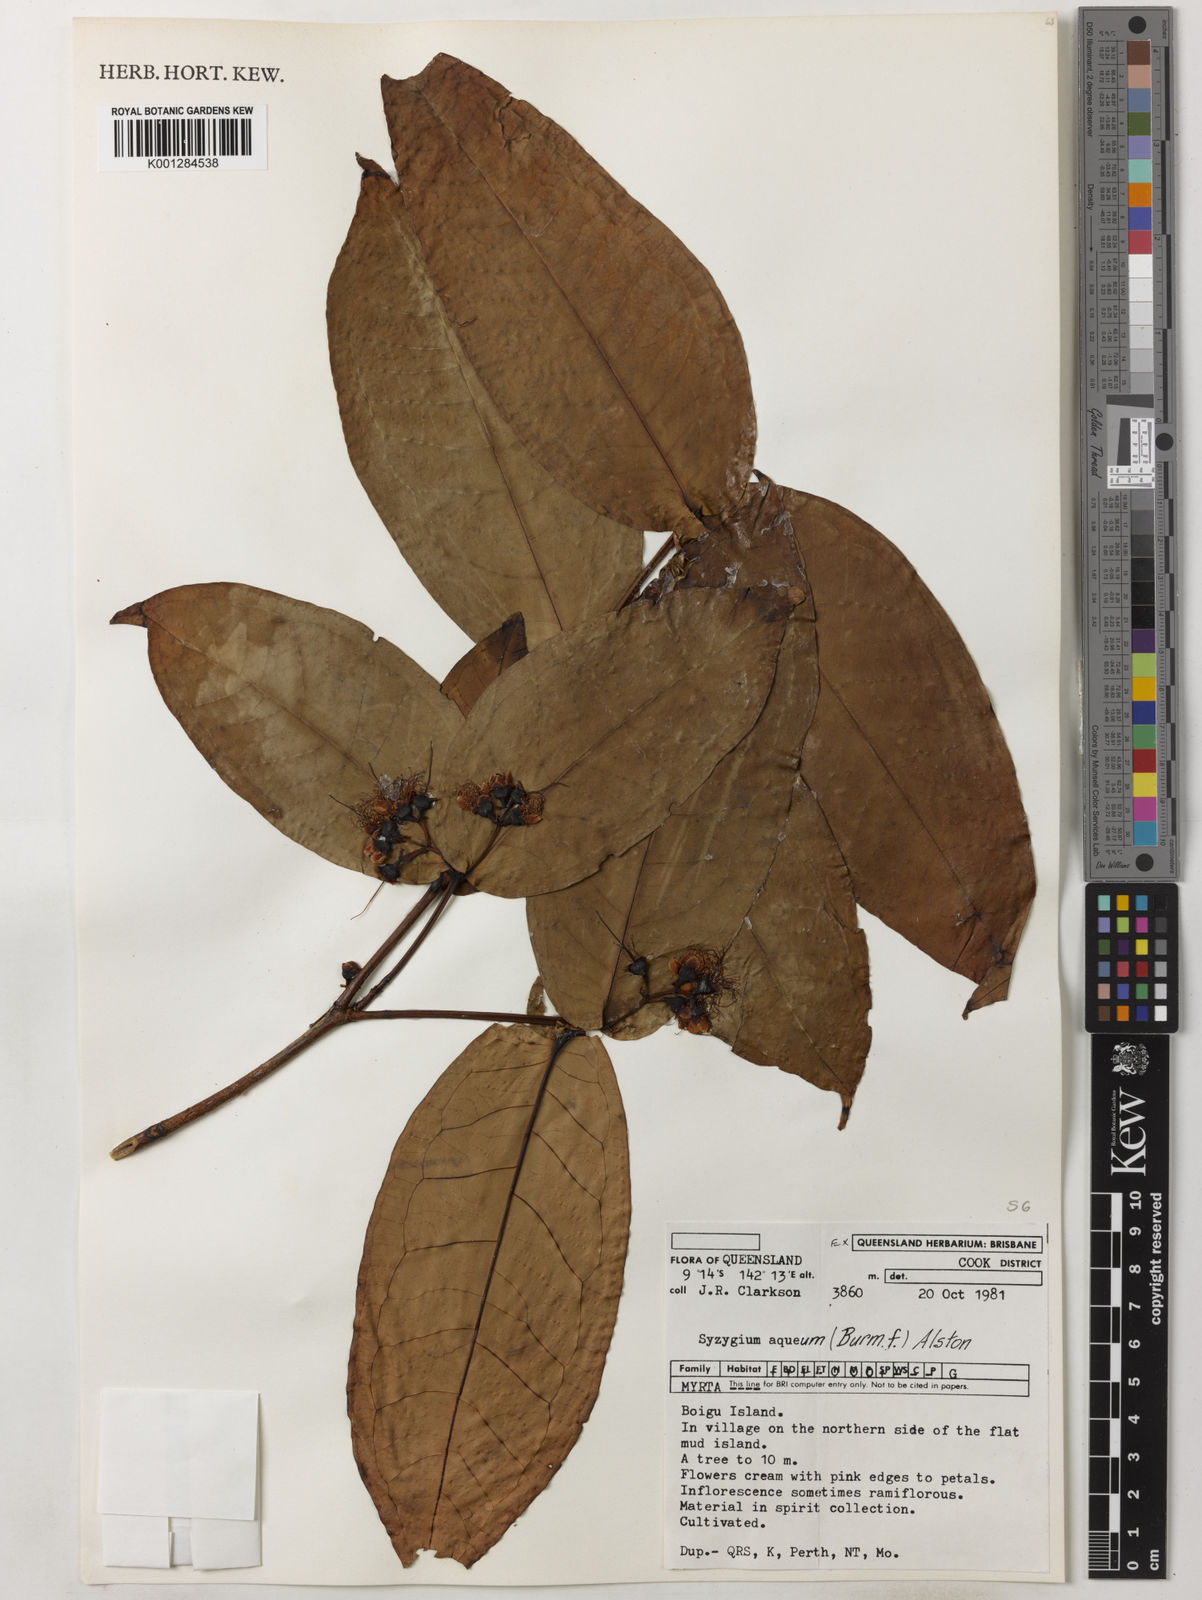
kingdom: Plantae
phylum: Tracheophyta
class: Magnoliopsida
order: Myrtales
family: Myrtaceae
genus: Syzygium
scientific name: Syzygium aqueum
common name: Water-apple
